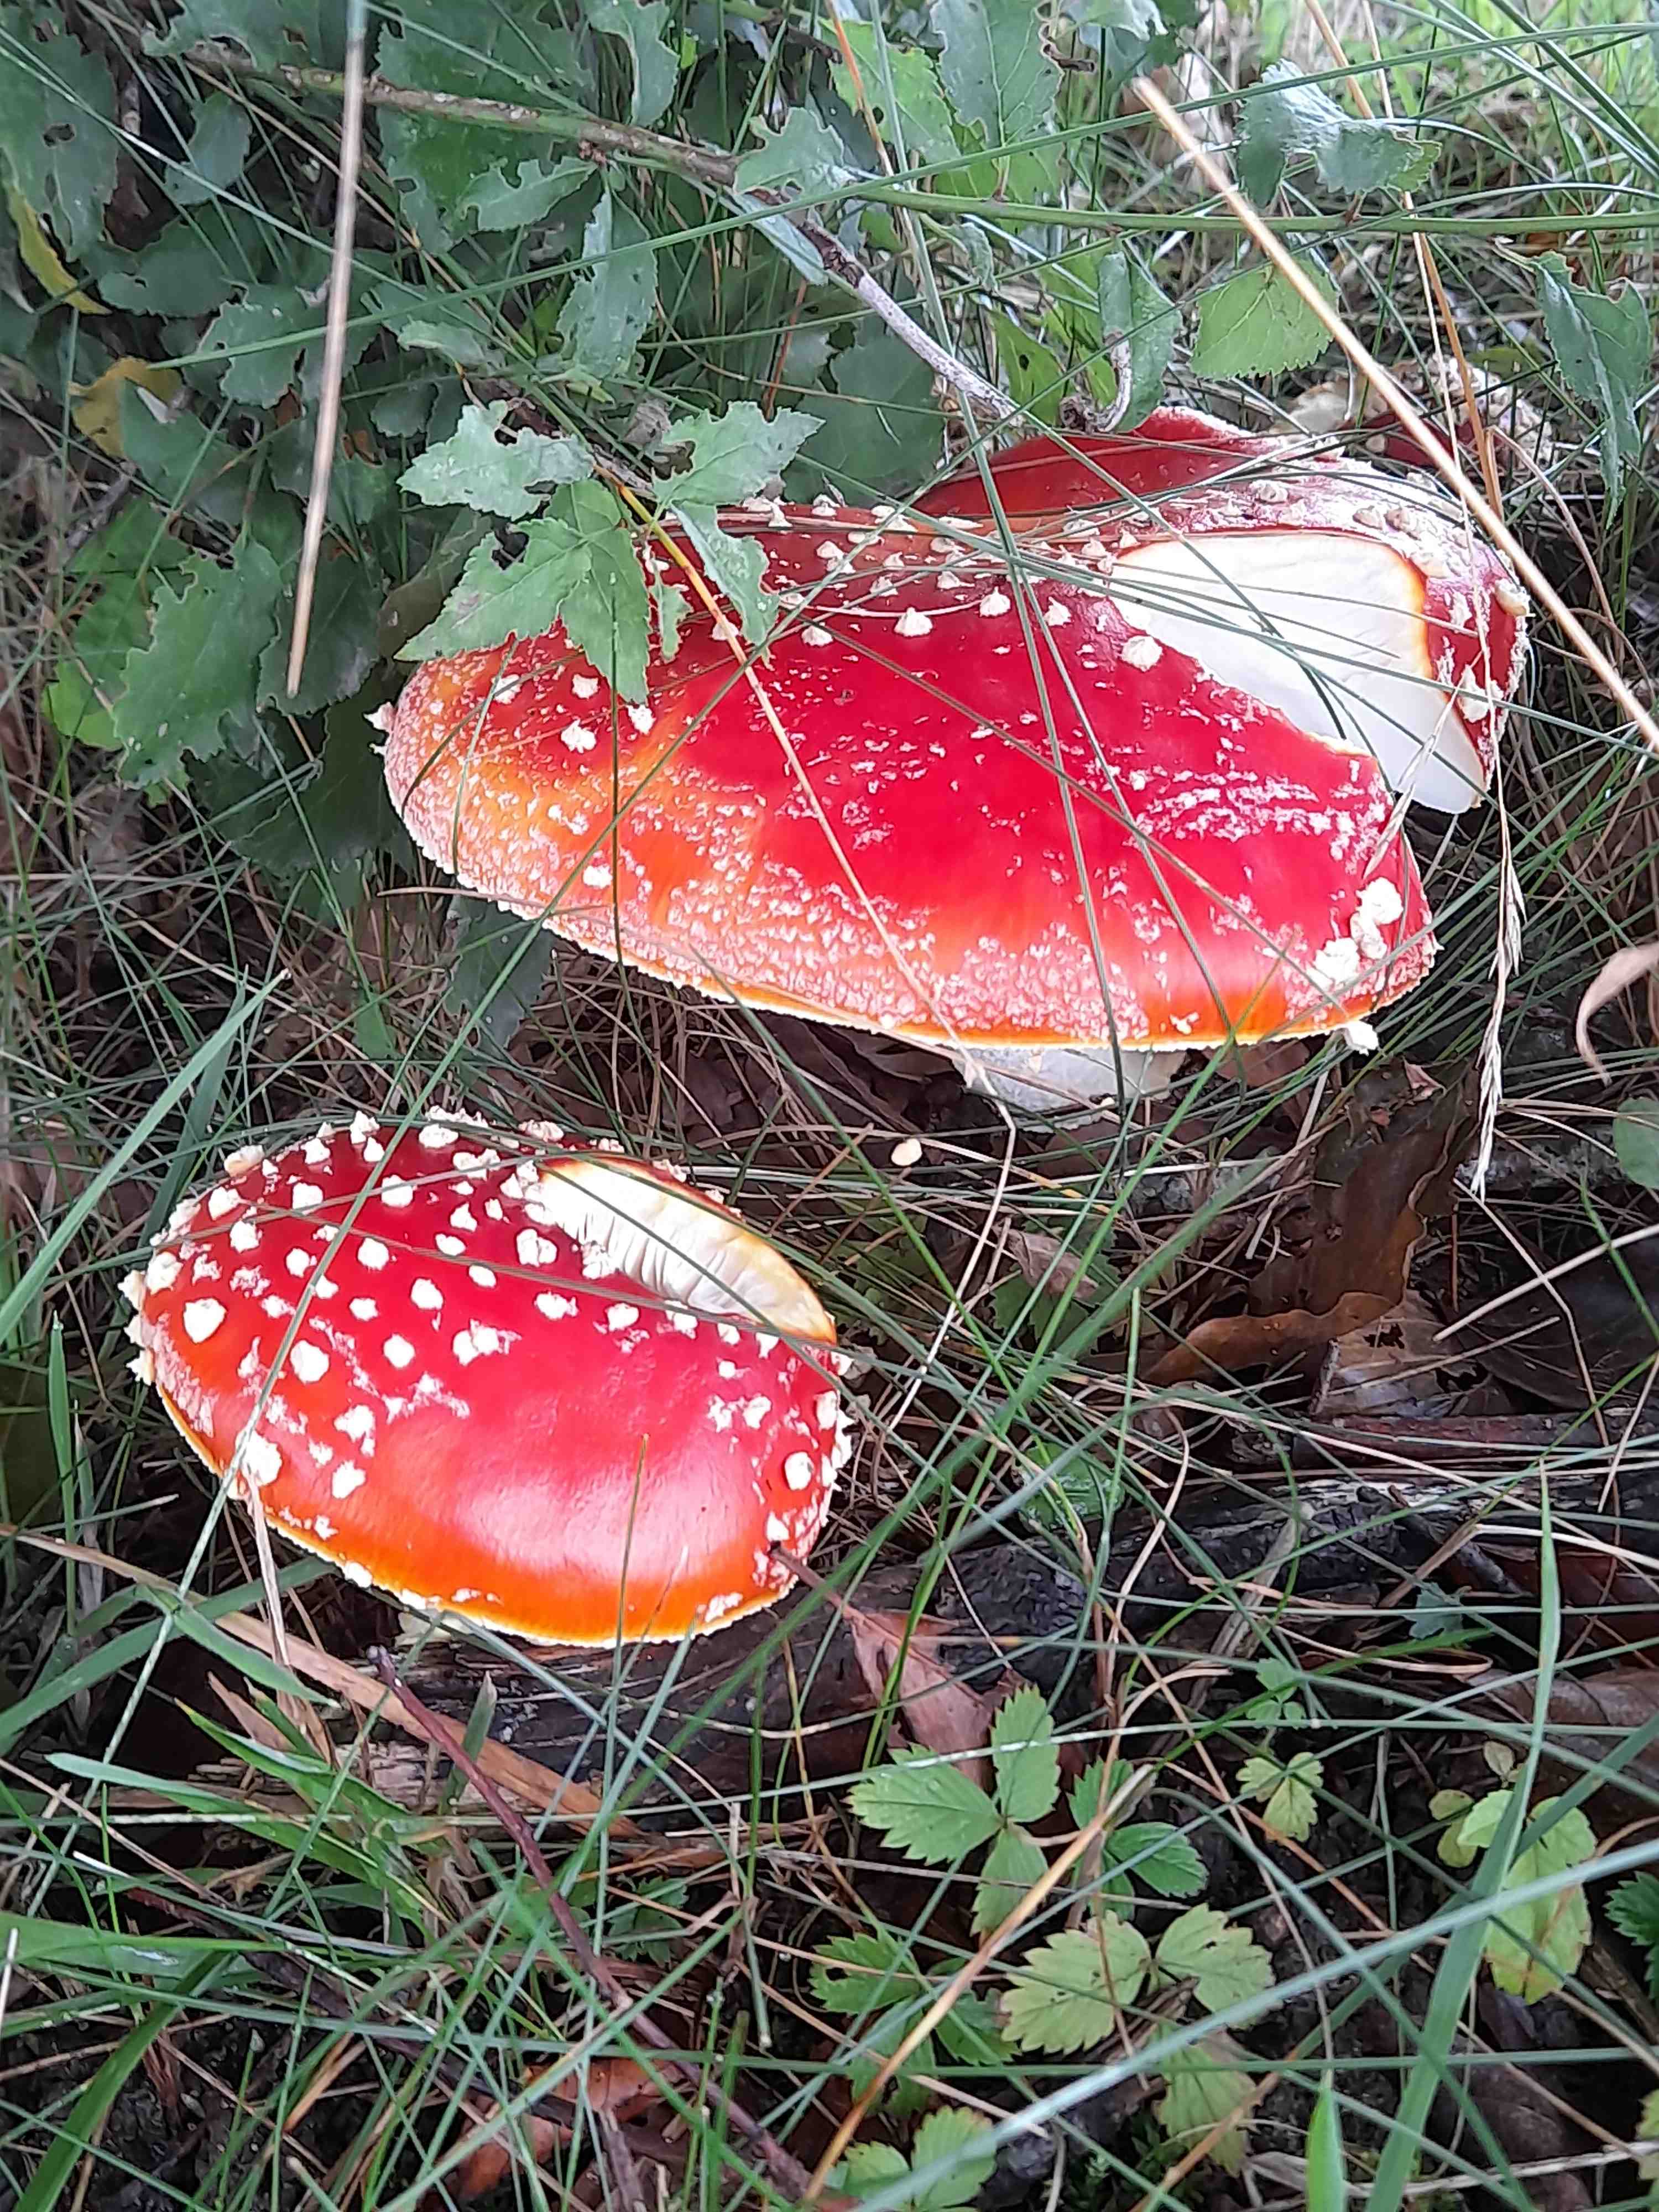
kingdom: Fungi
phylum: Basidiomycota
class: Agaricomycetes
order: Agaricales
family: Amanitaceae
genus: Amanita
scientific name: Amanita muscaria
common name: rød fluesvamp
